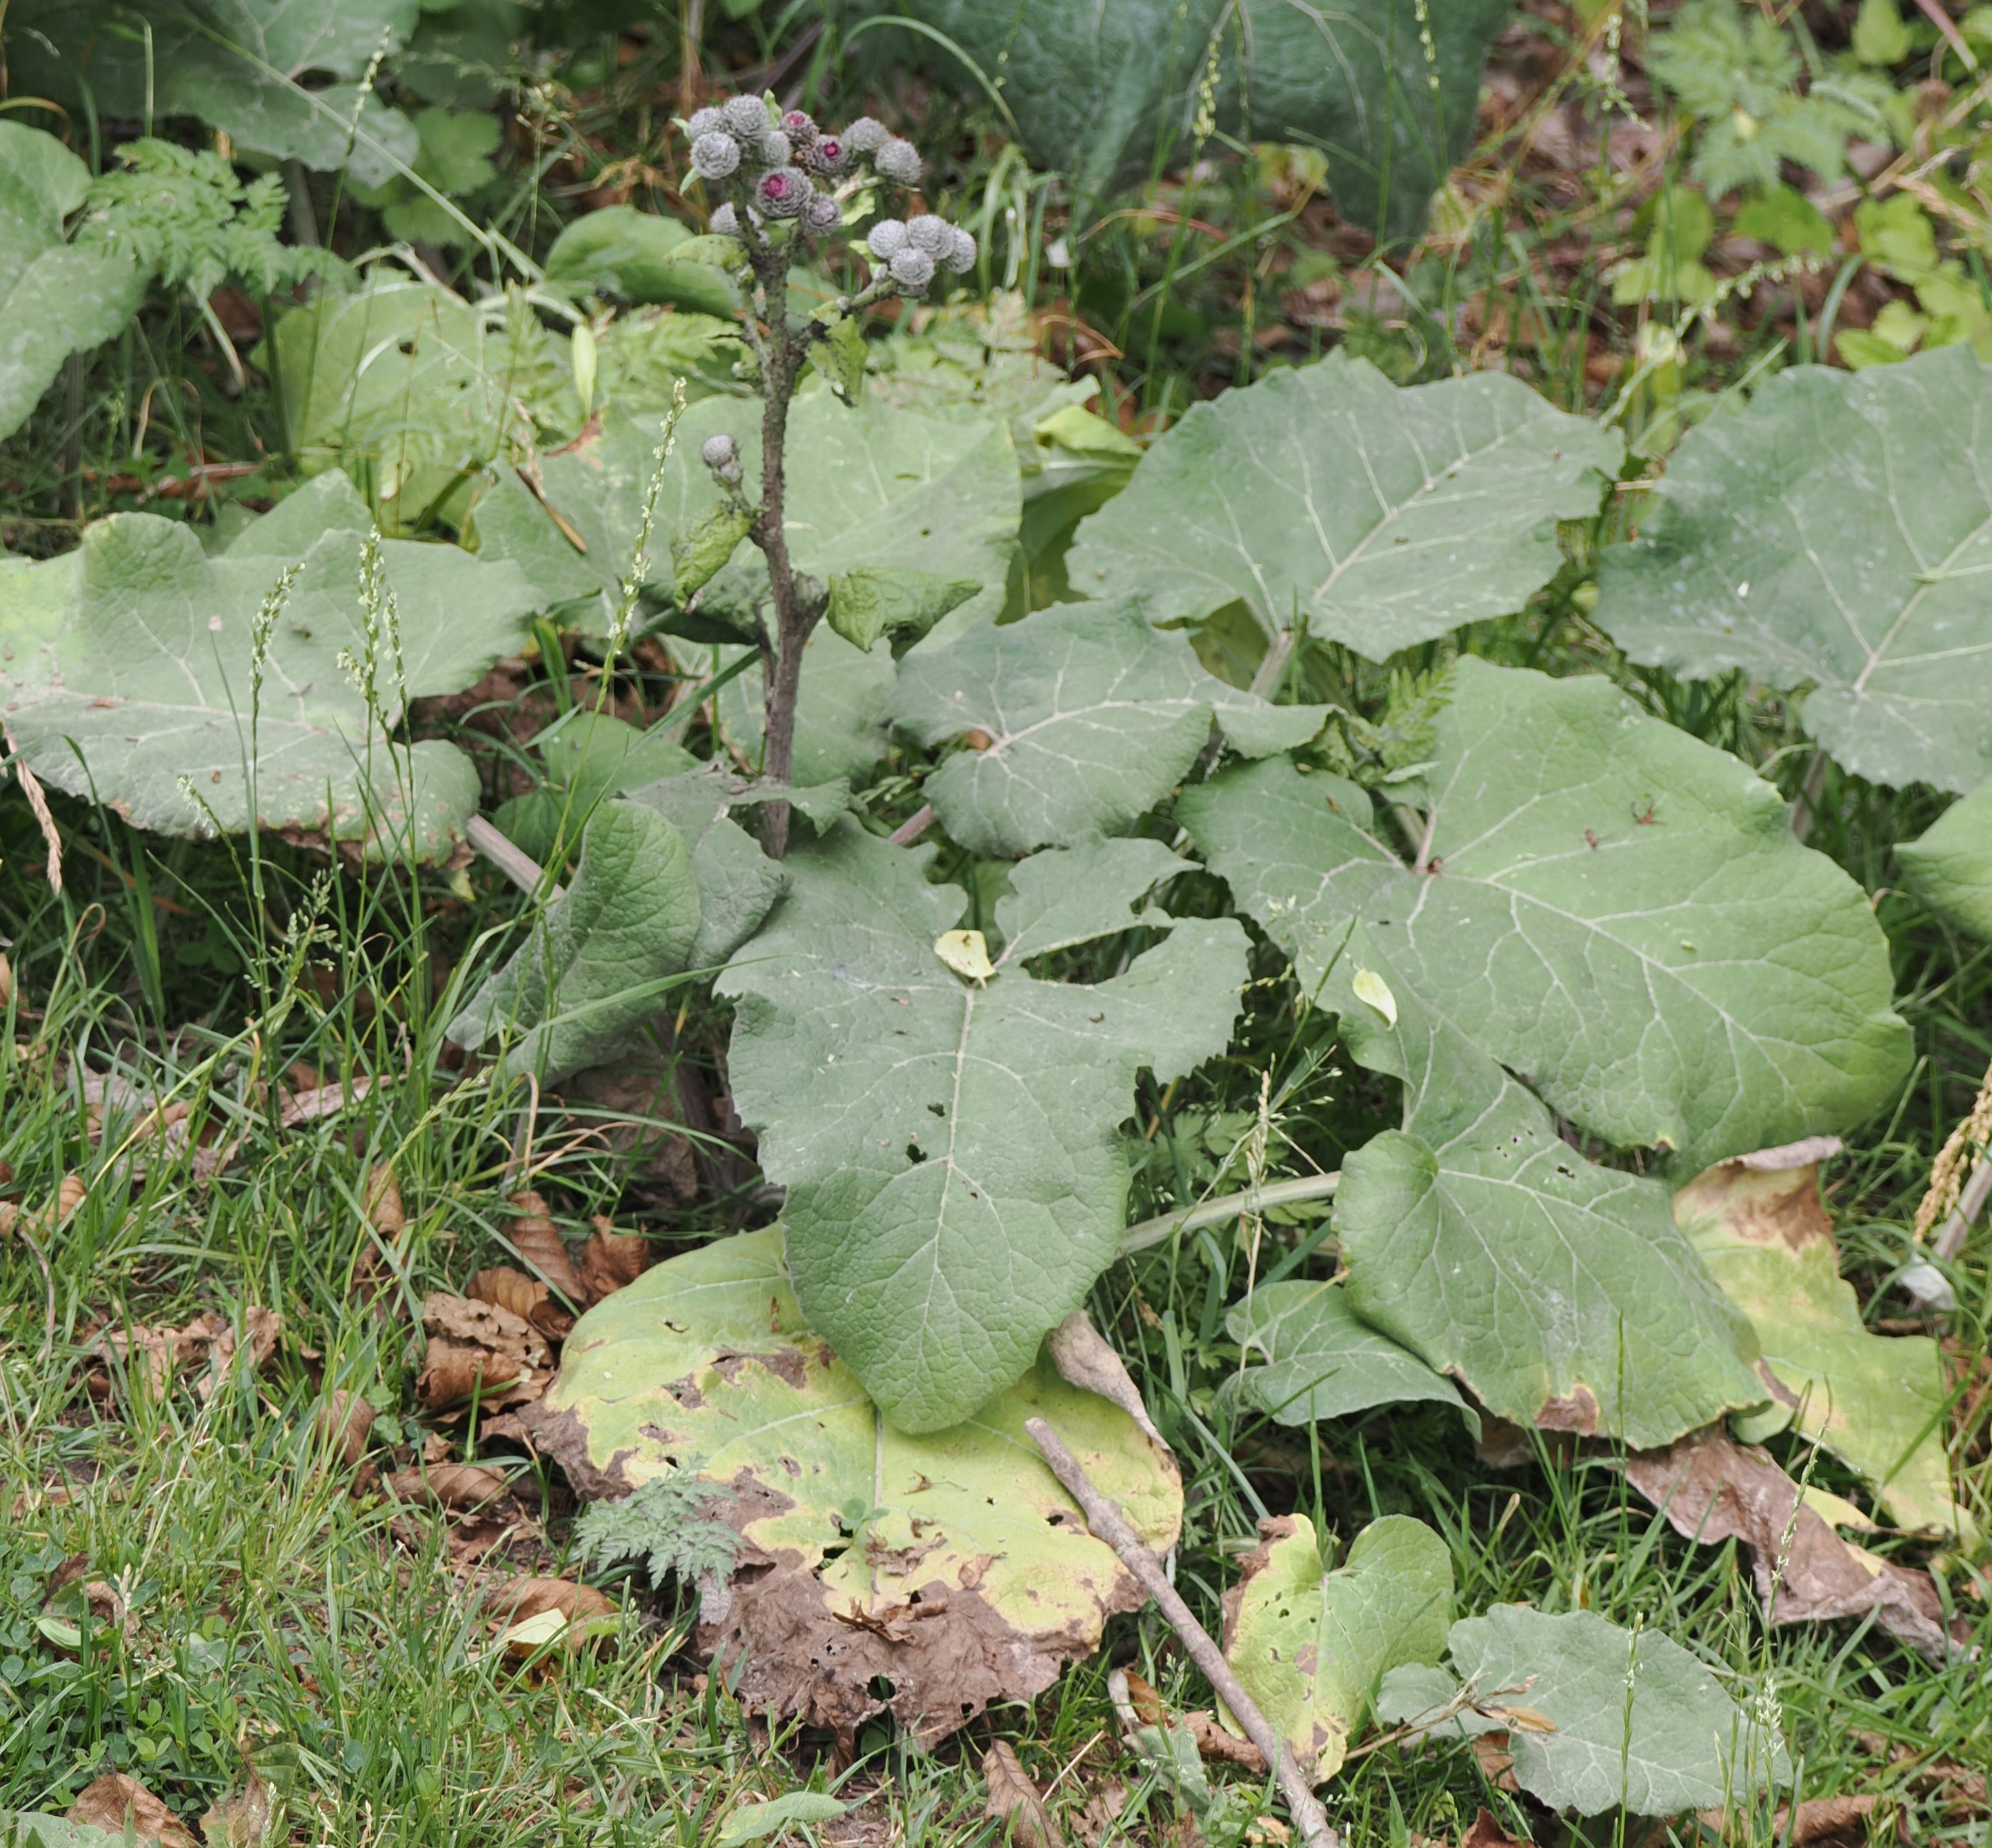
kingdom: Plantae
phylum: Tracheophyta
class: Magnoliopsida
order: Asterales
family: Asteraceae
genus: Arctium
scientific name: Arctium tomentosum
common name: Filtet burre
